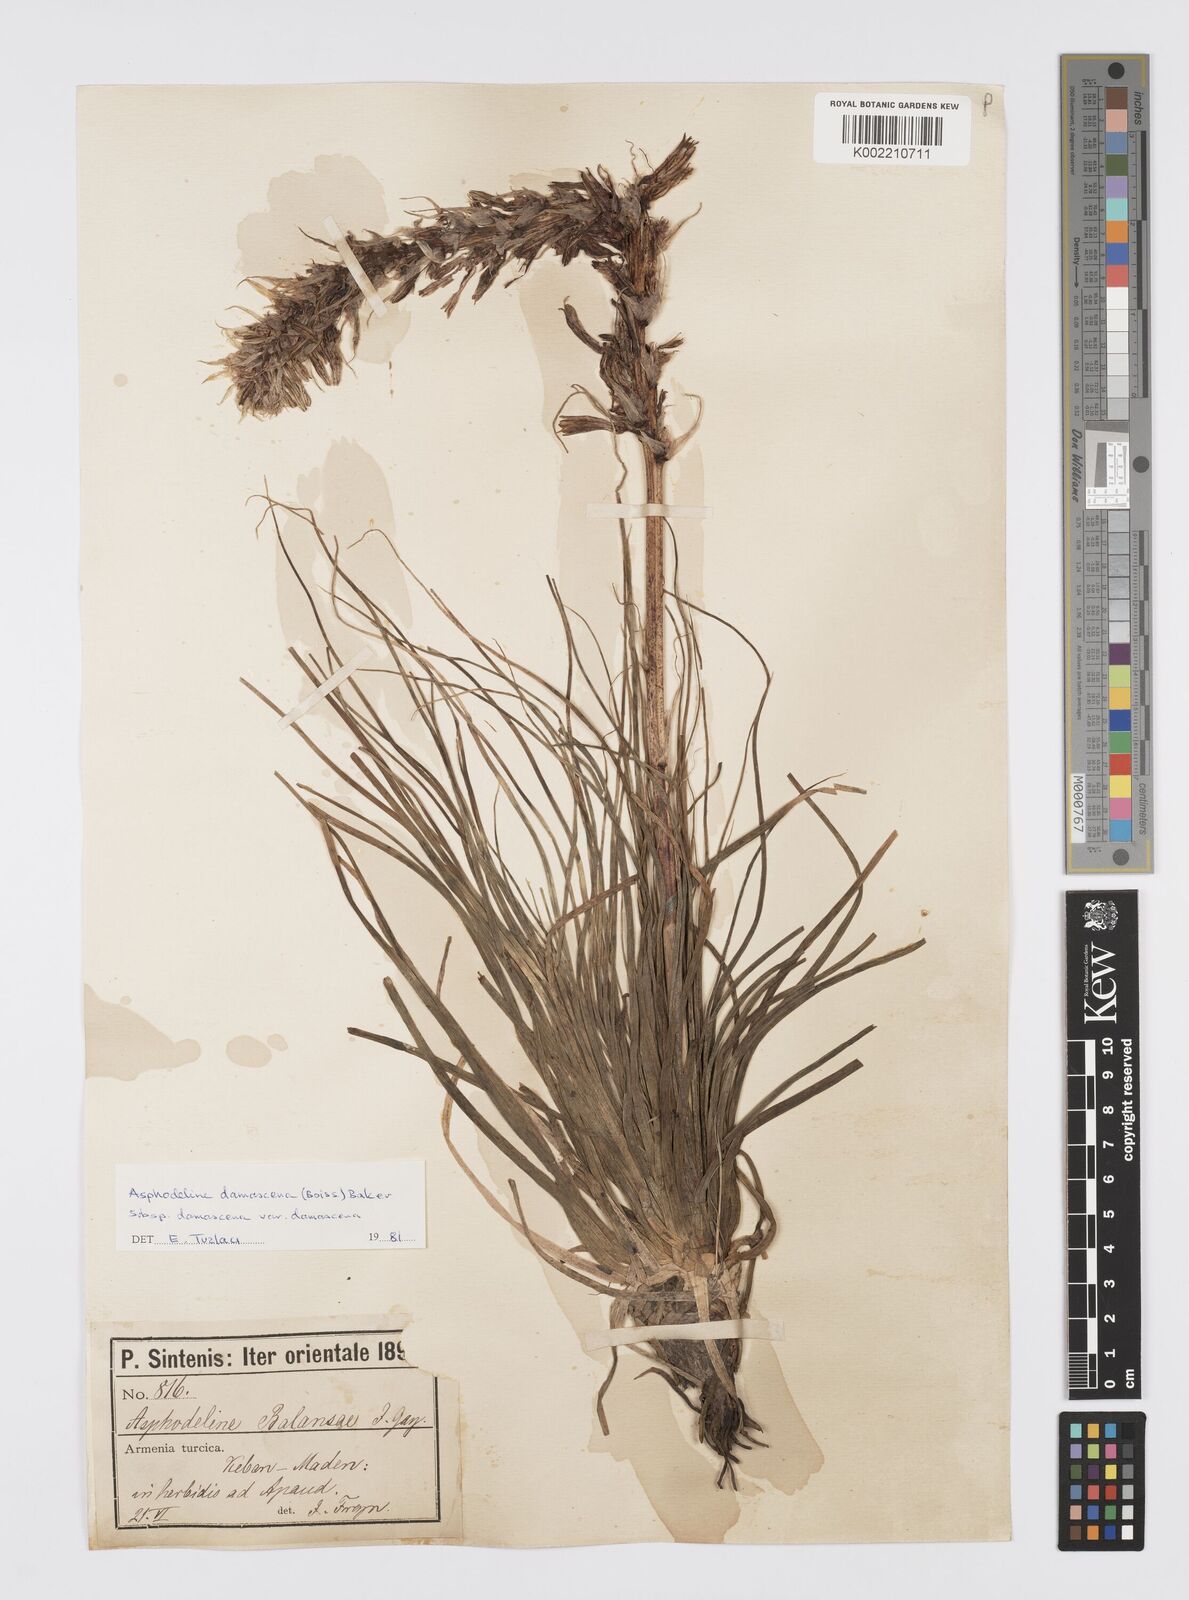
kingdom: Plantae
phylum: Tracheophyta
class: Liliopsida
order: Asparagales
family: Asphodelaceae
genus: Asphodeline
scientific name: Asphodeline damascena
